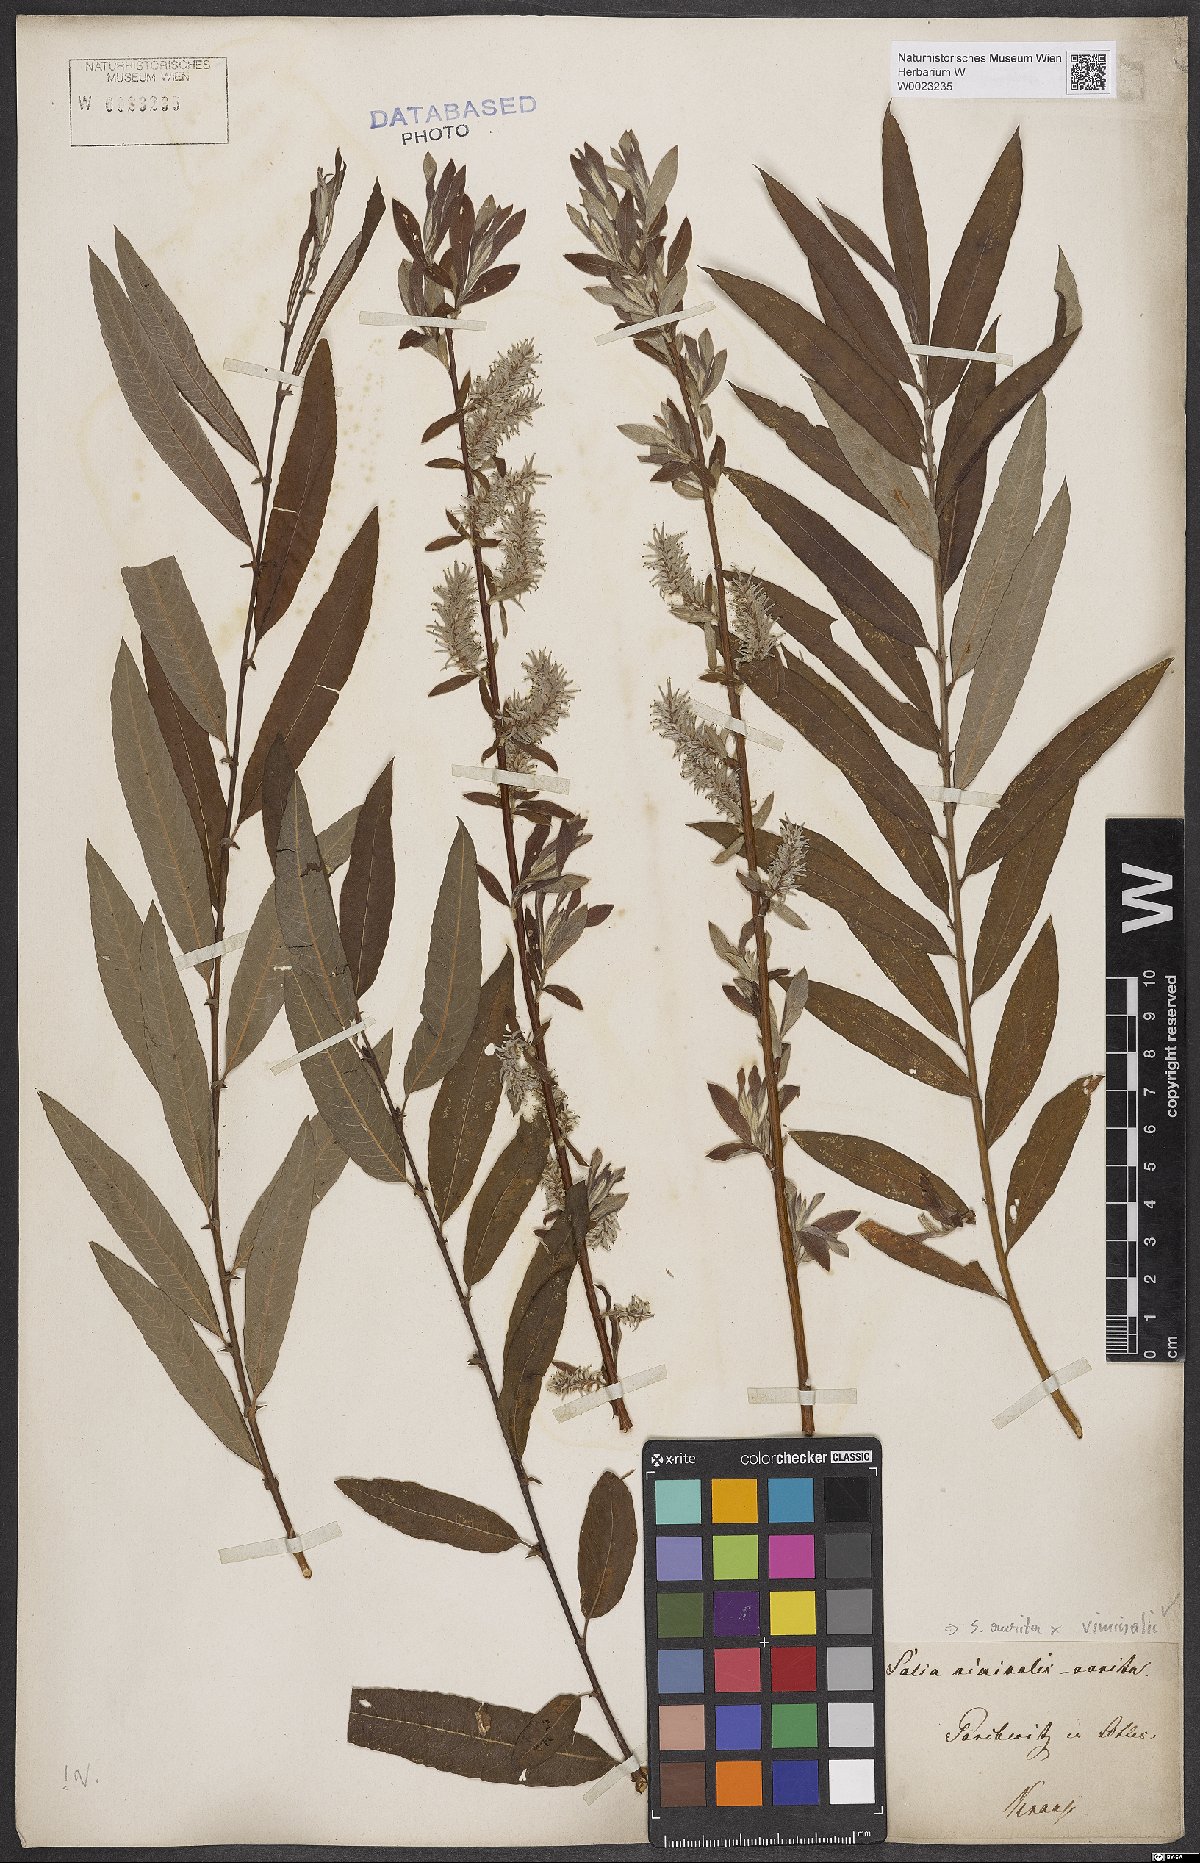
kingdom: Plantae
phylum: Tracheophyta
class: Magnoliopsida
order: Malpighiales
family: Salicaceae
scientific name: Salicaceae
